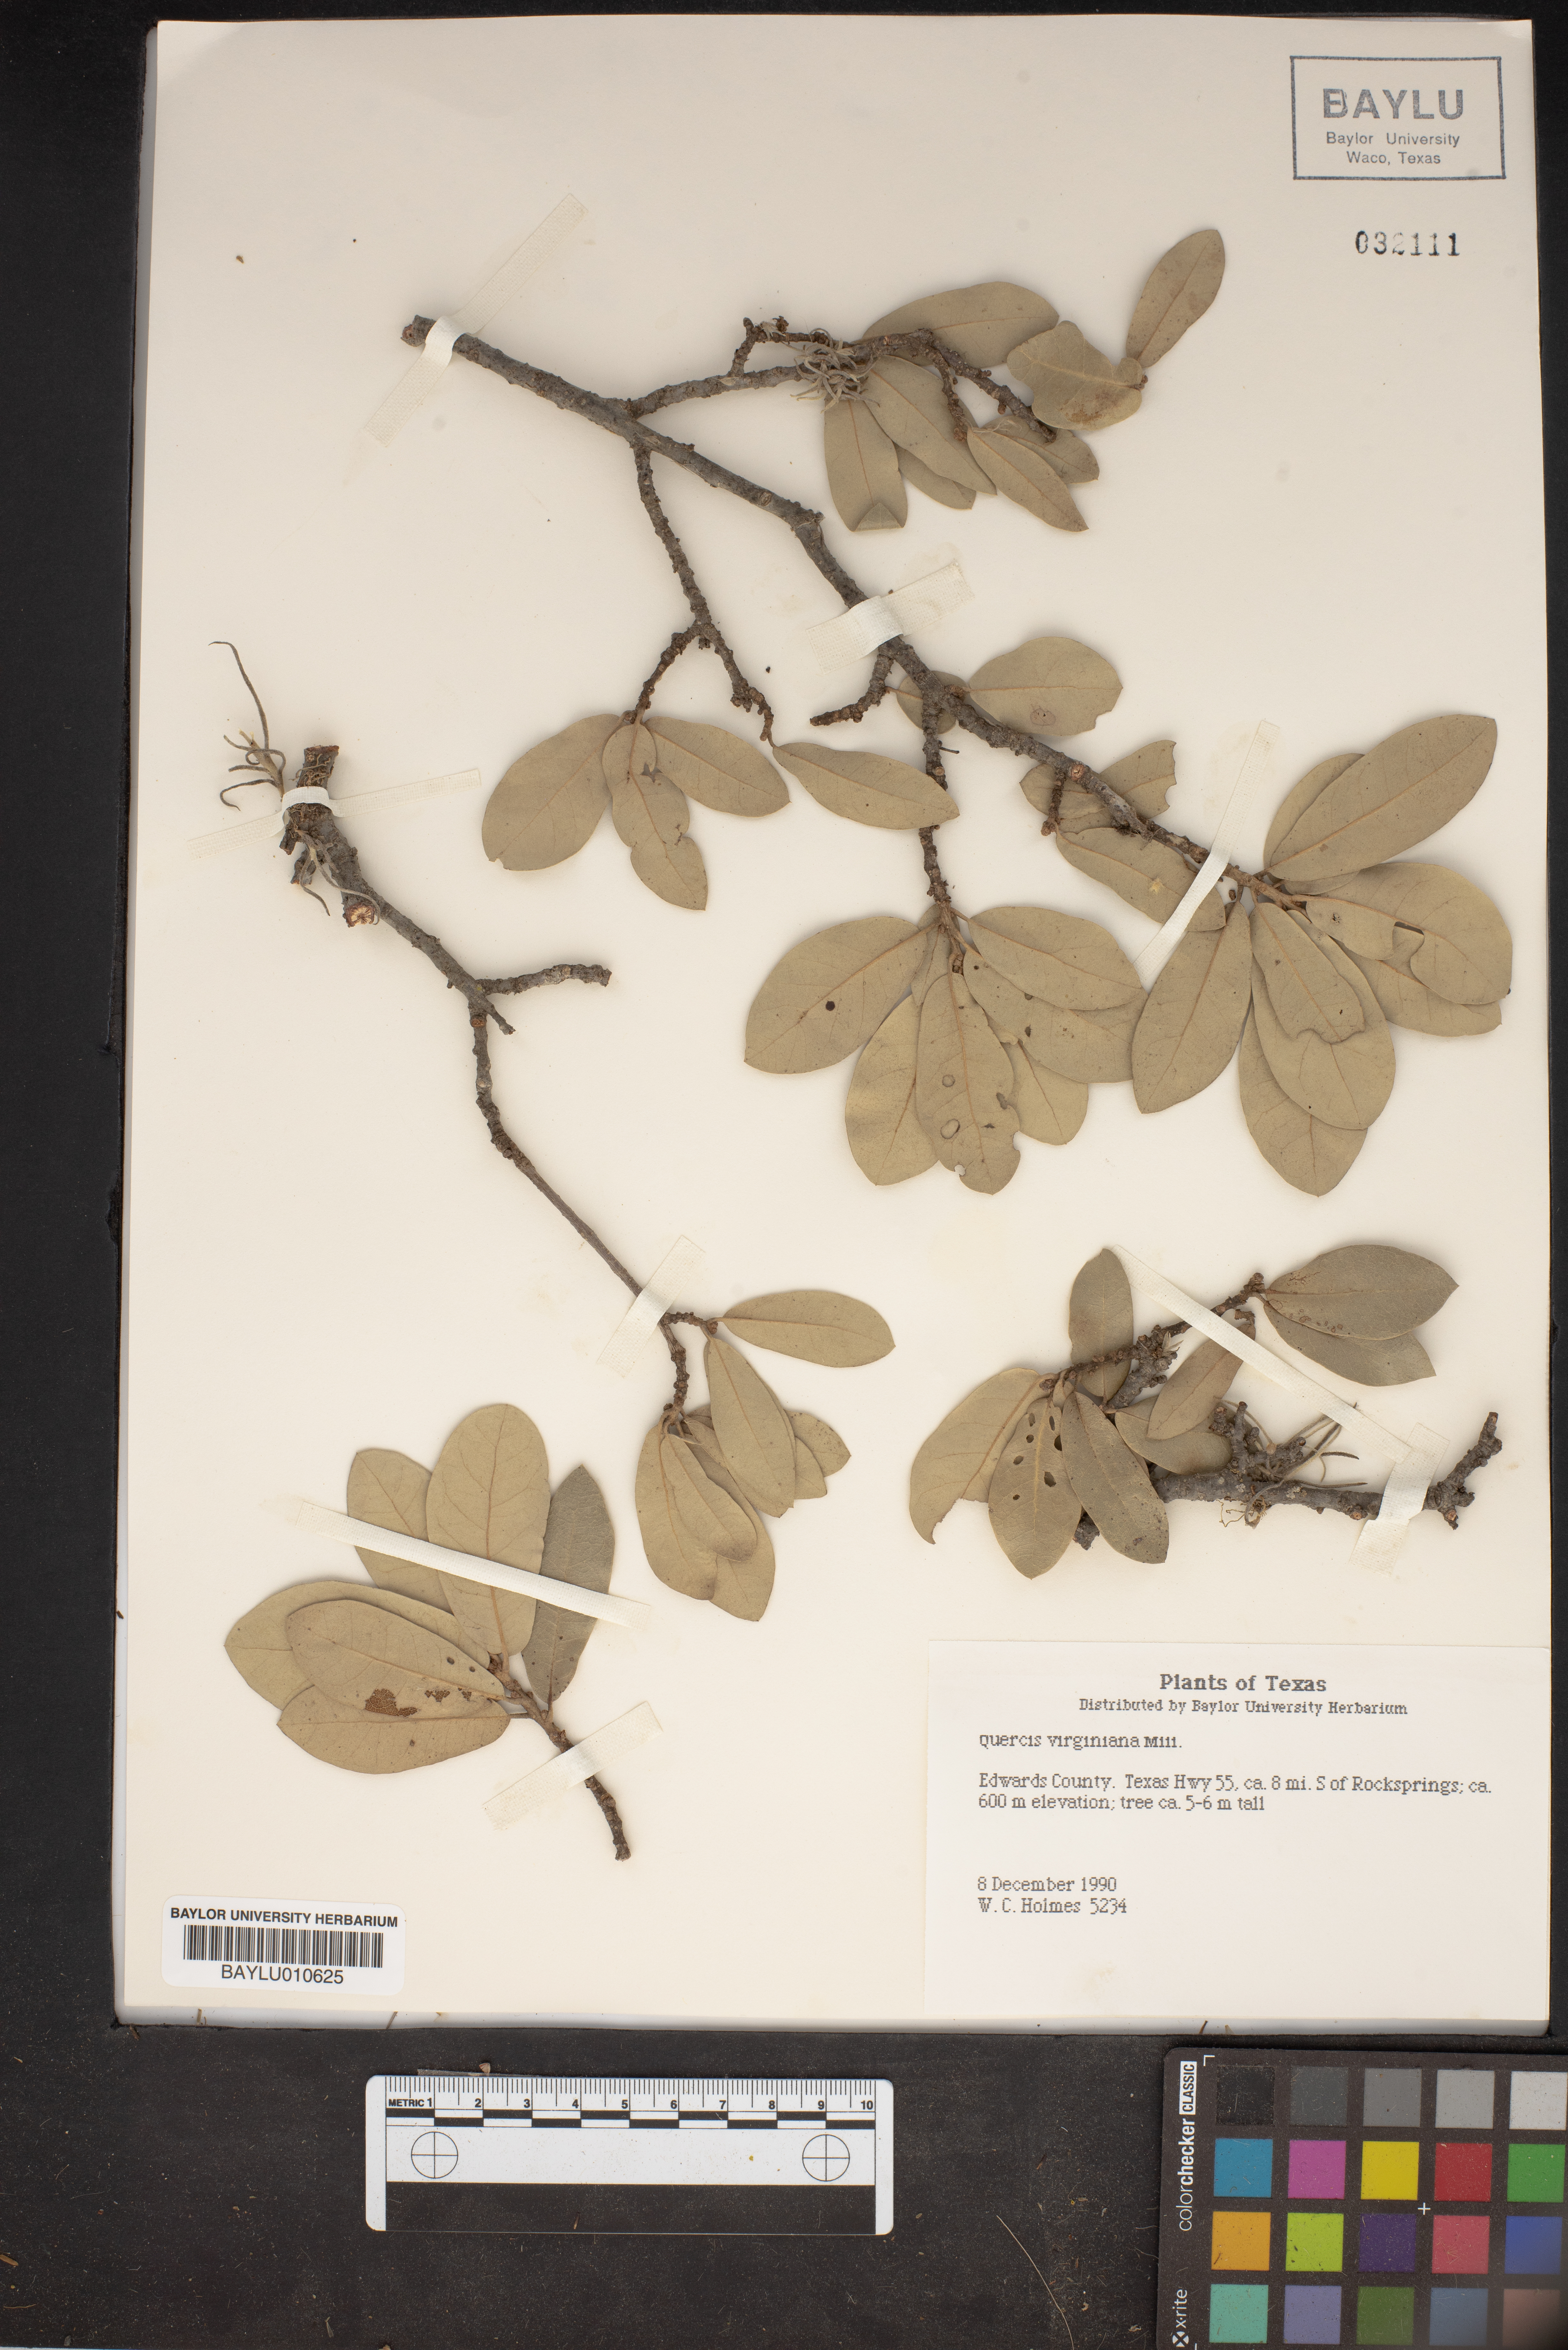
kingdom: Plantae
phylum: Tracheophyta
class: Magnoliopsida
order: Fagales
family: Fagaceae
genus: Quercus
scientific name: Quercus virginiana
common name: Southern live oak
